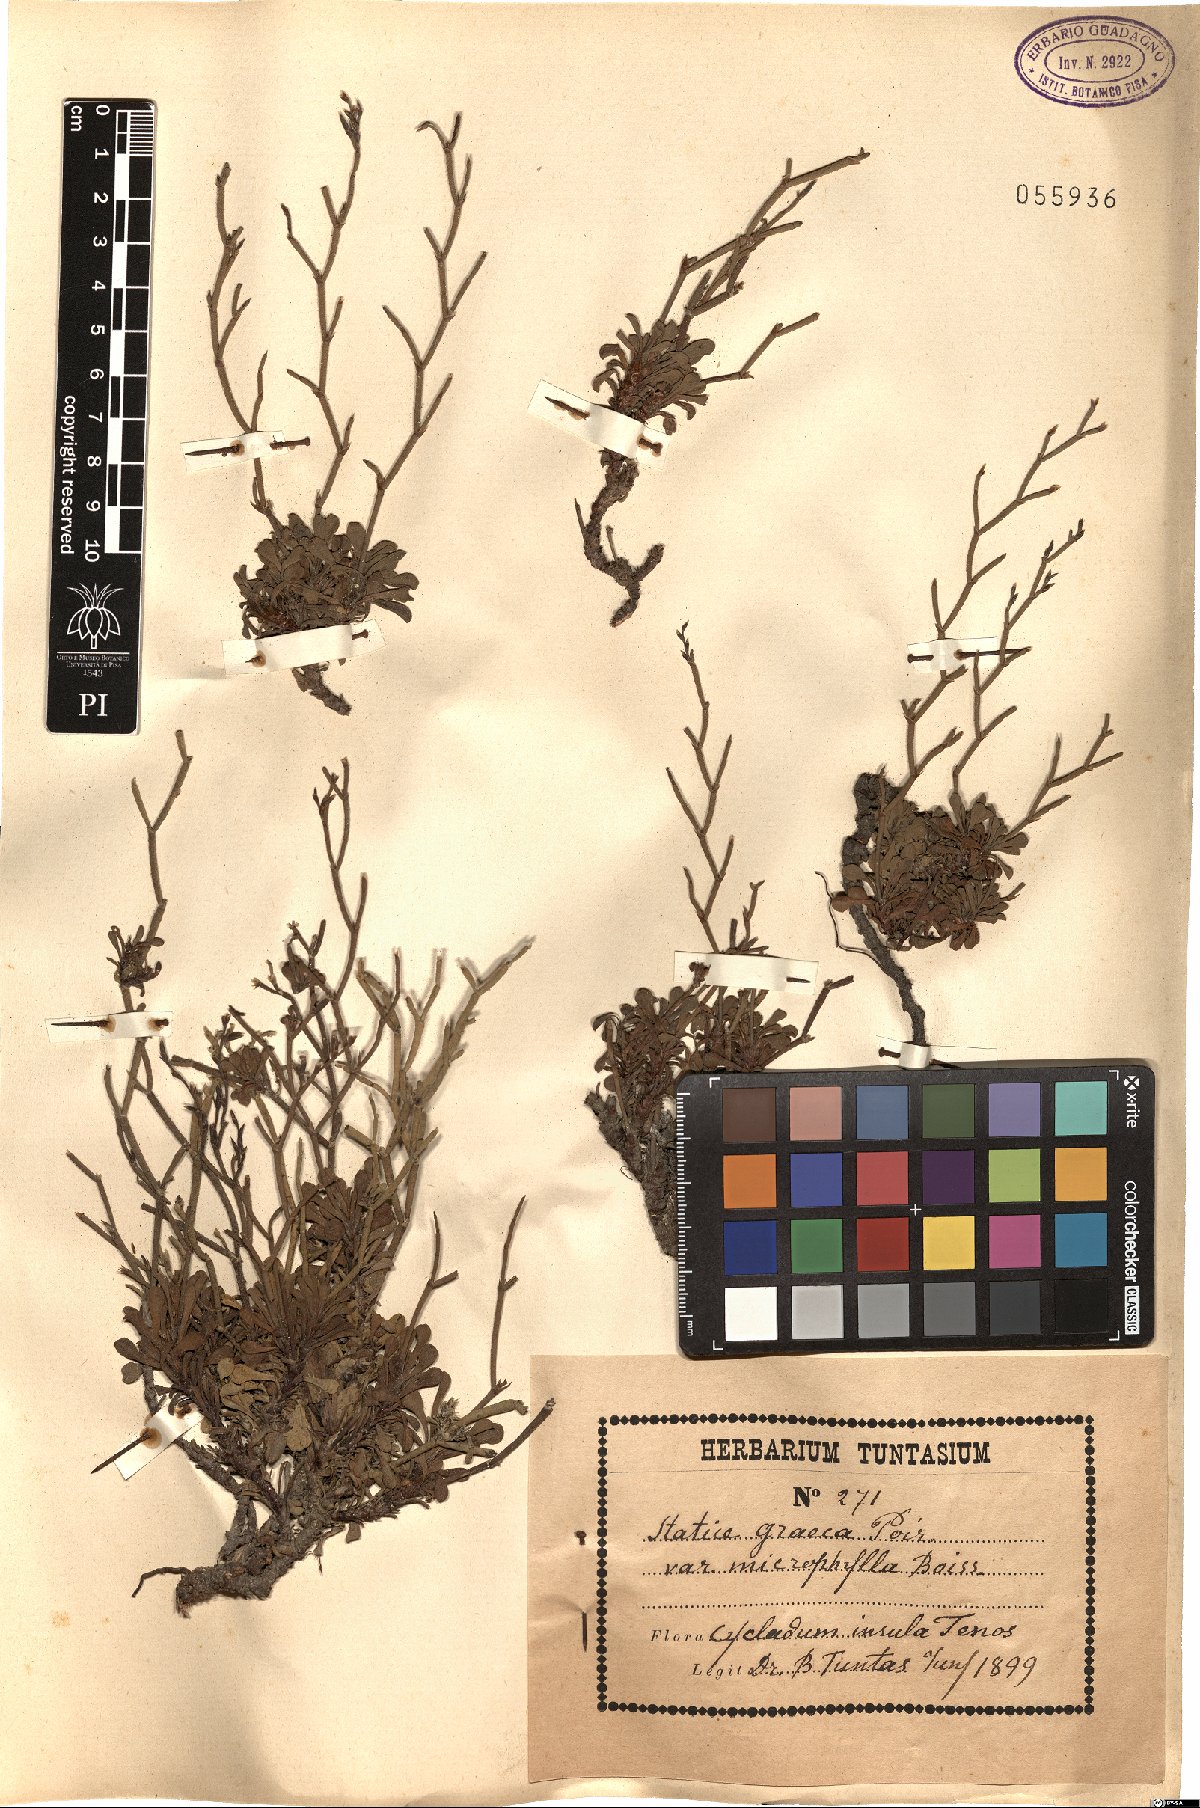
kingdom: Plantae
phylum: Tracheophyta
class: Magnoliopsida
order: Caryophyllales
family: Plumbaginaceae
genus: Limonium
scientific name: Limonium
